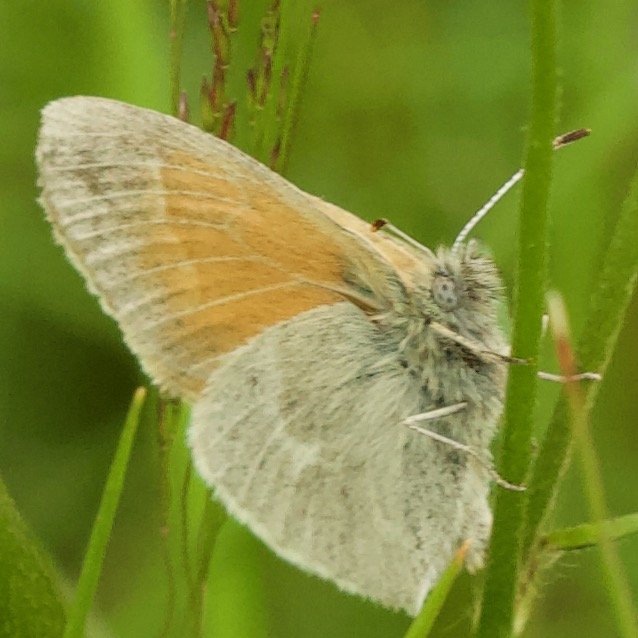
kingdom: Animalia
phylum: Arthropoda
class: Insecta
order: Lepidoptera
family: Nymphalidae
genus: Coenonympha
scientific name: Coenonympha tullia
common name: Large Heath
